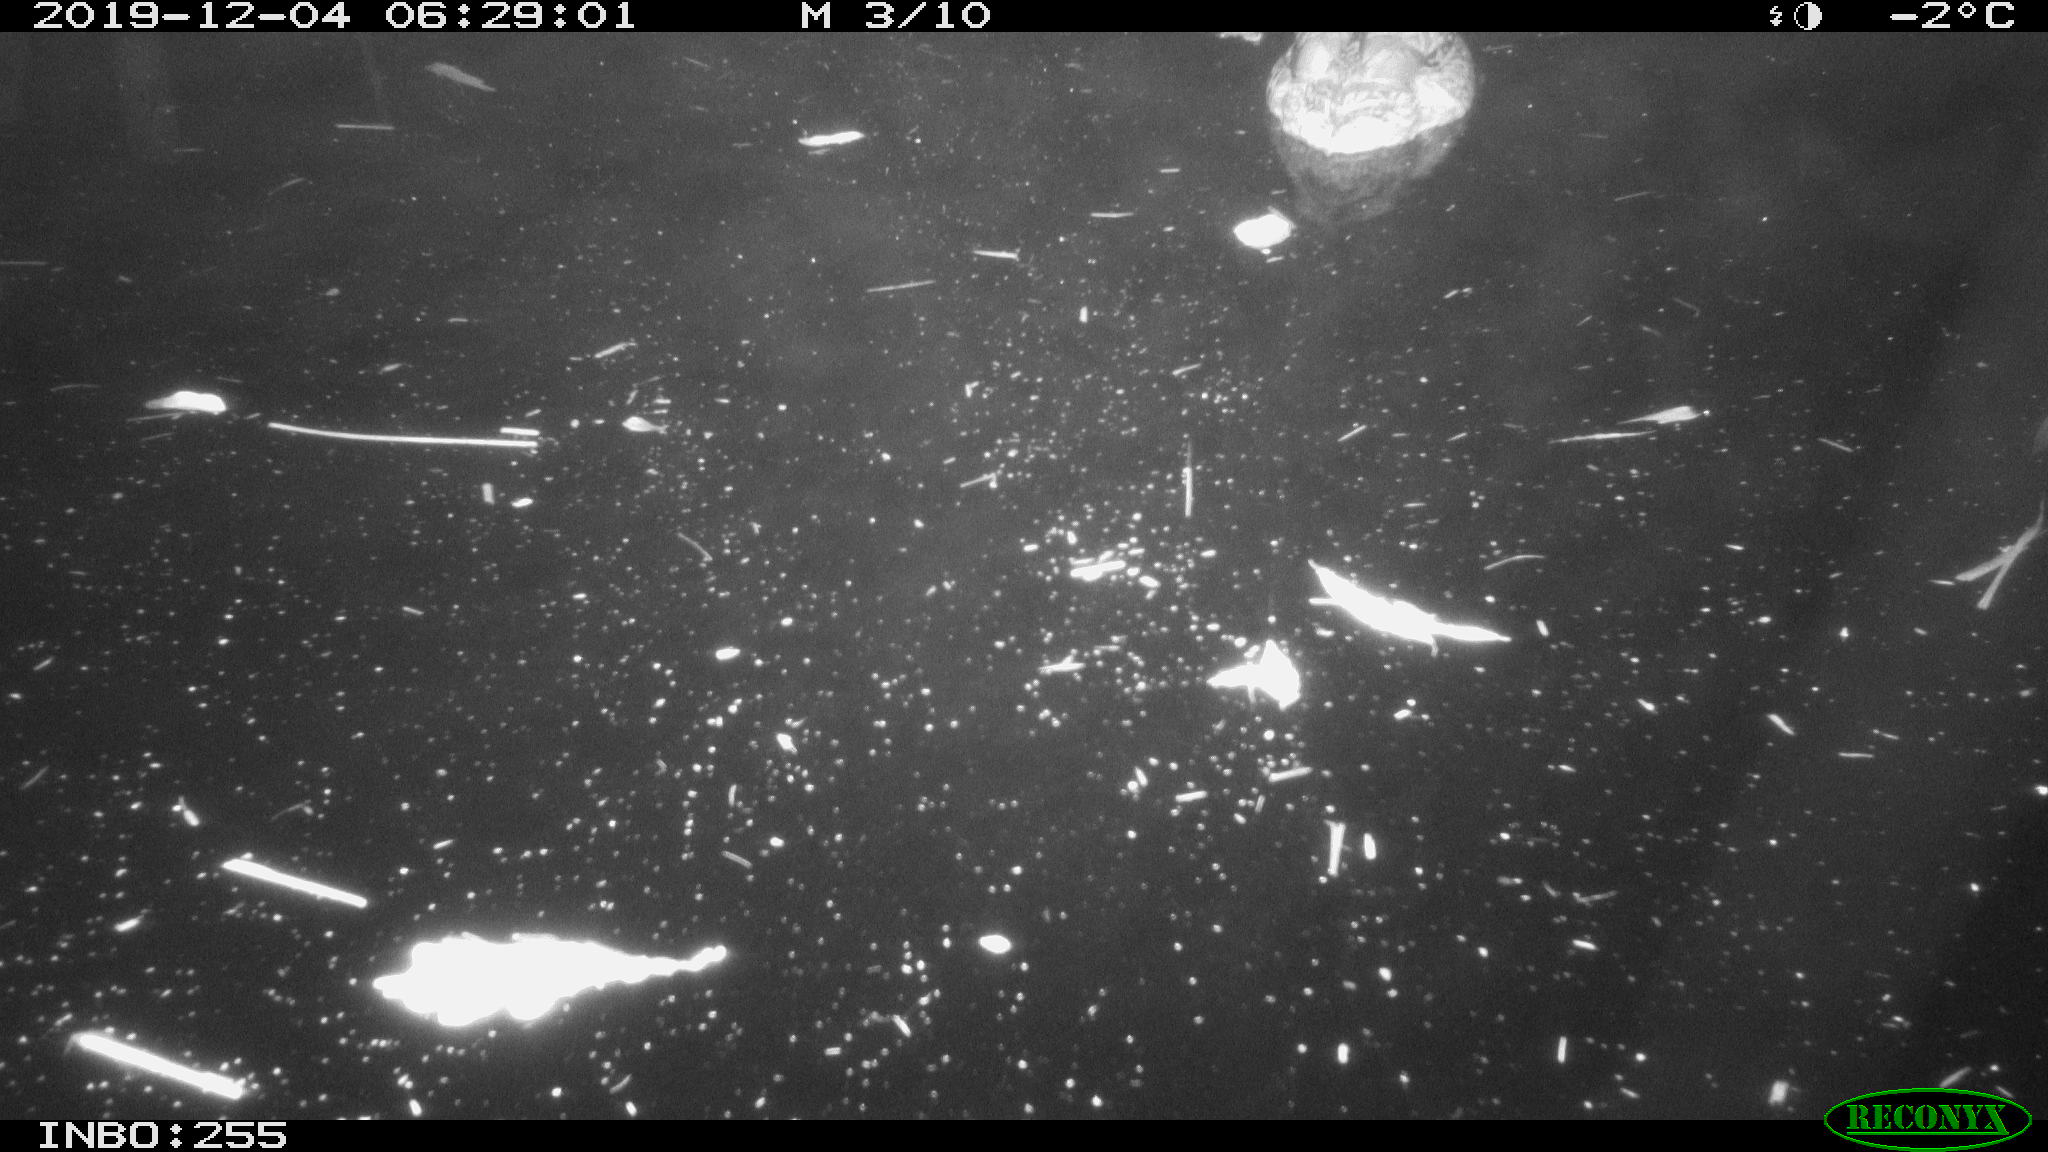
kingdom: Animalia
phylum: Chordata
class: Aves
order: Anseriformes
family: Anatidae
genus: Anas
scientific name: Anas platyrhynchos
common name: Mallard
